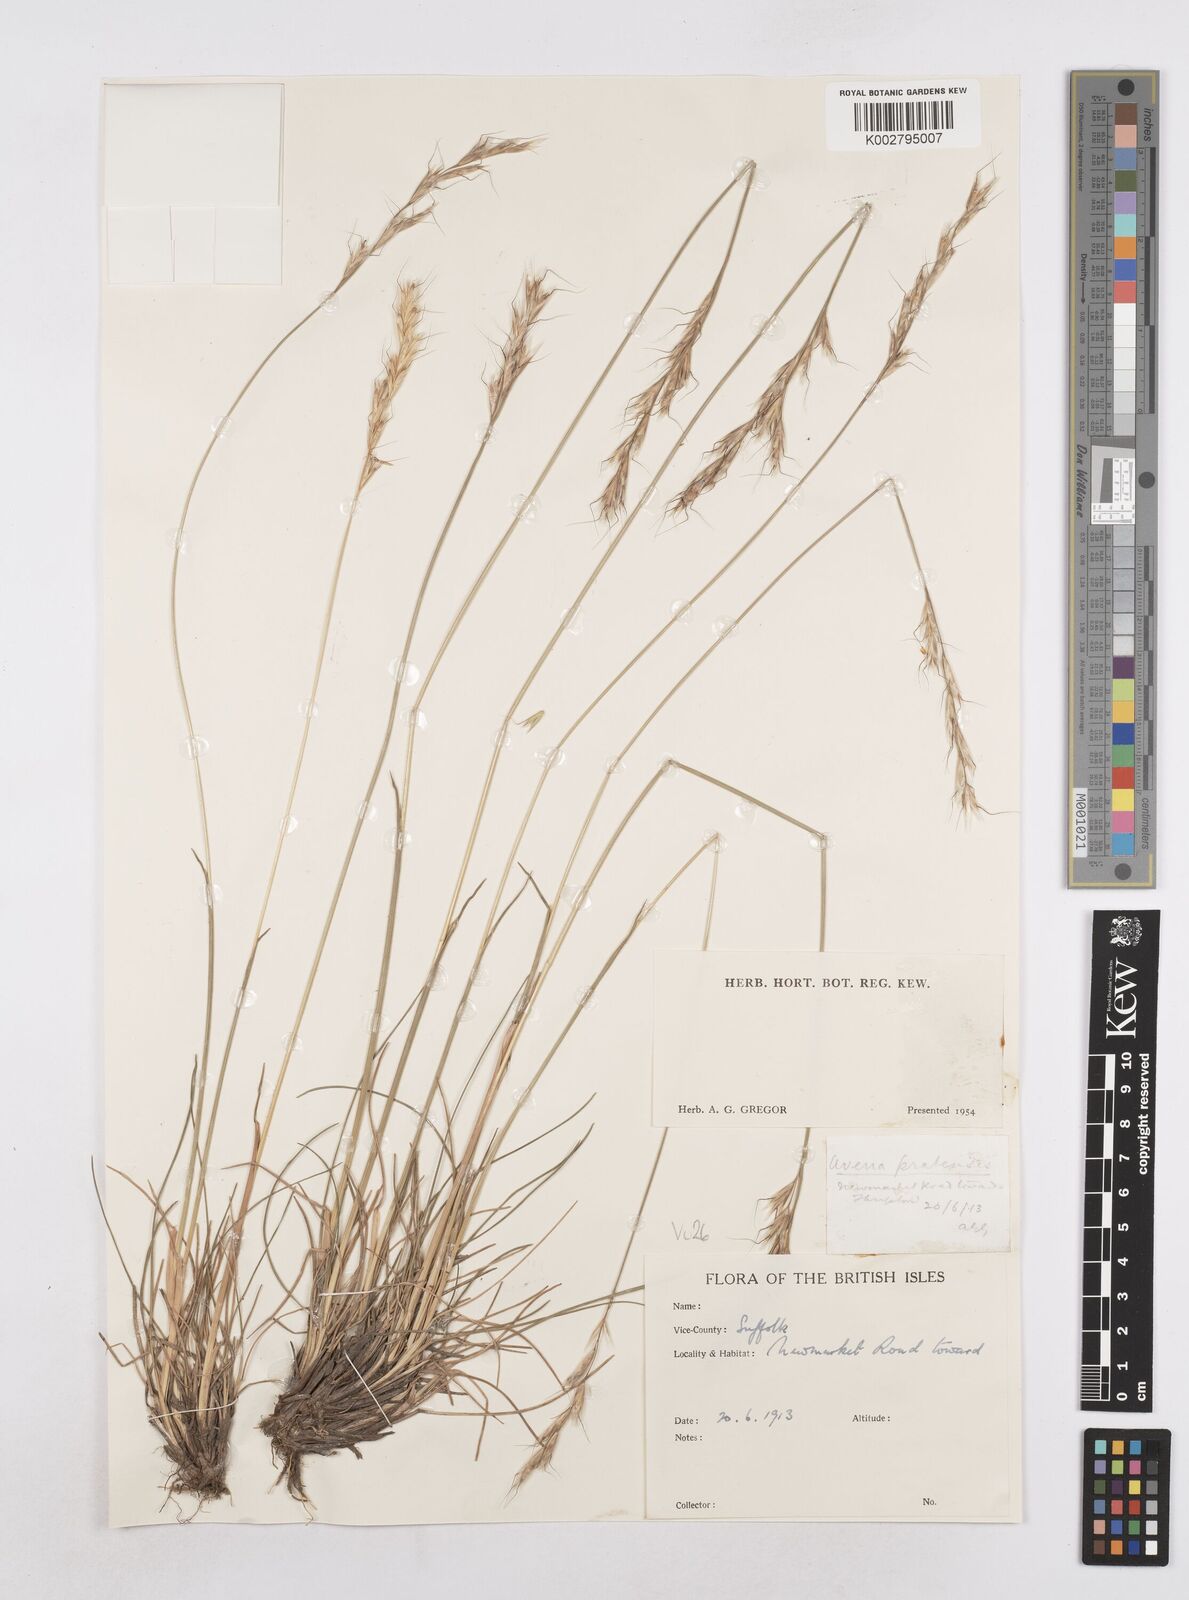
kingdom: Plantae
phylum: Tracheophyta
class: Liliopsida
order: Poales
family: Poaceae
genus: Helictochloa
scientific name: Helictochloa pratensis
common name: Meadow oat grass
